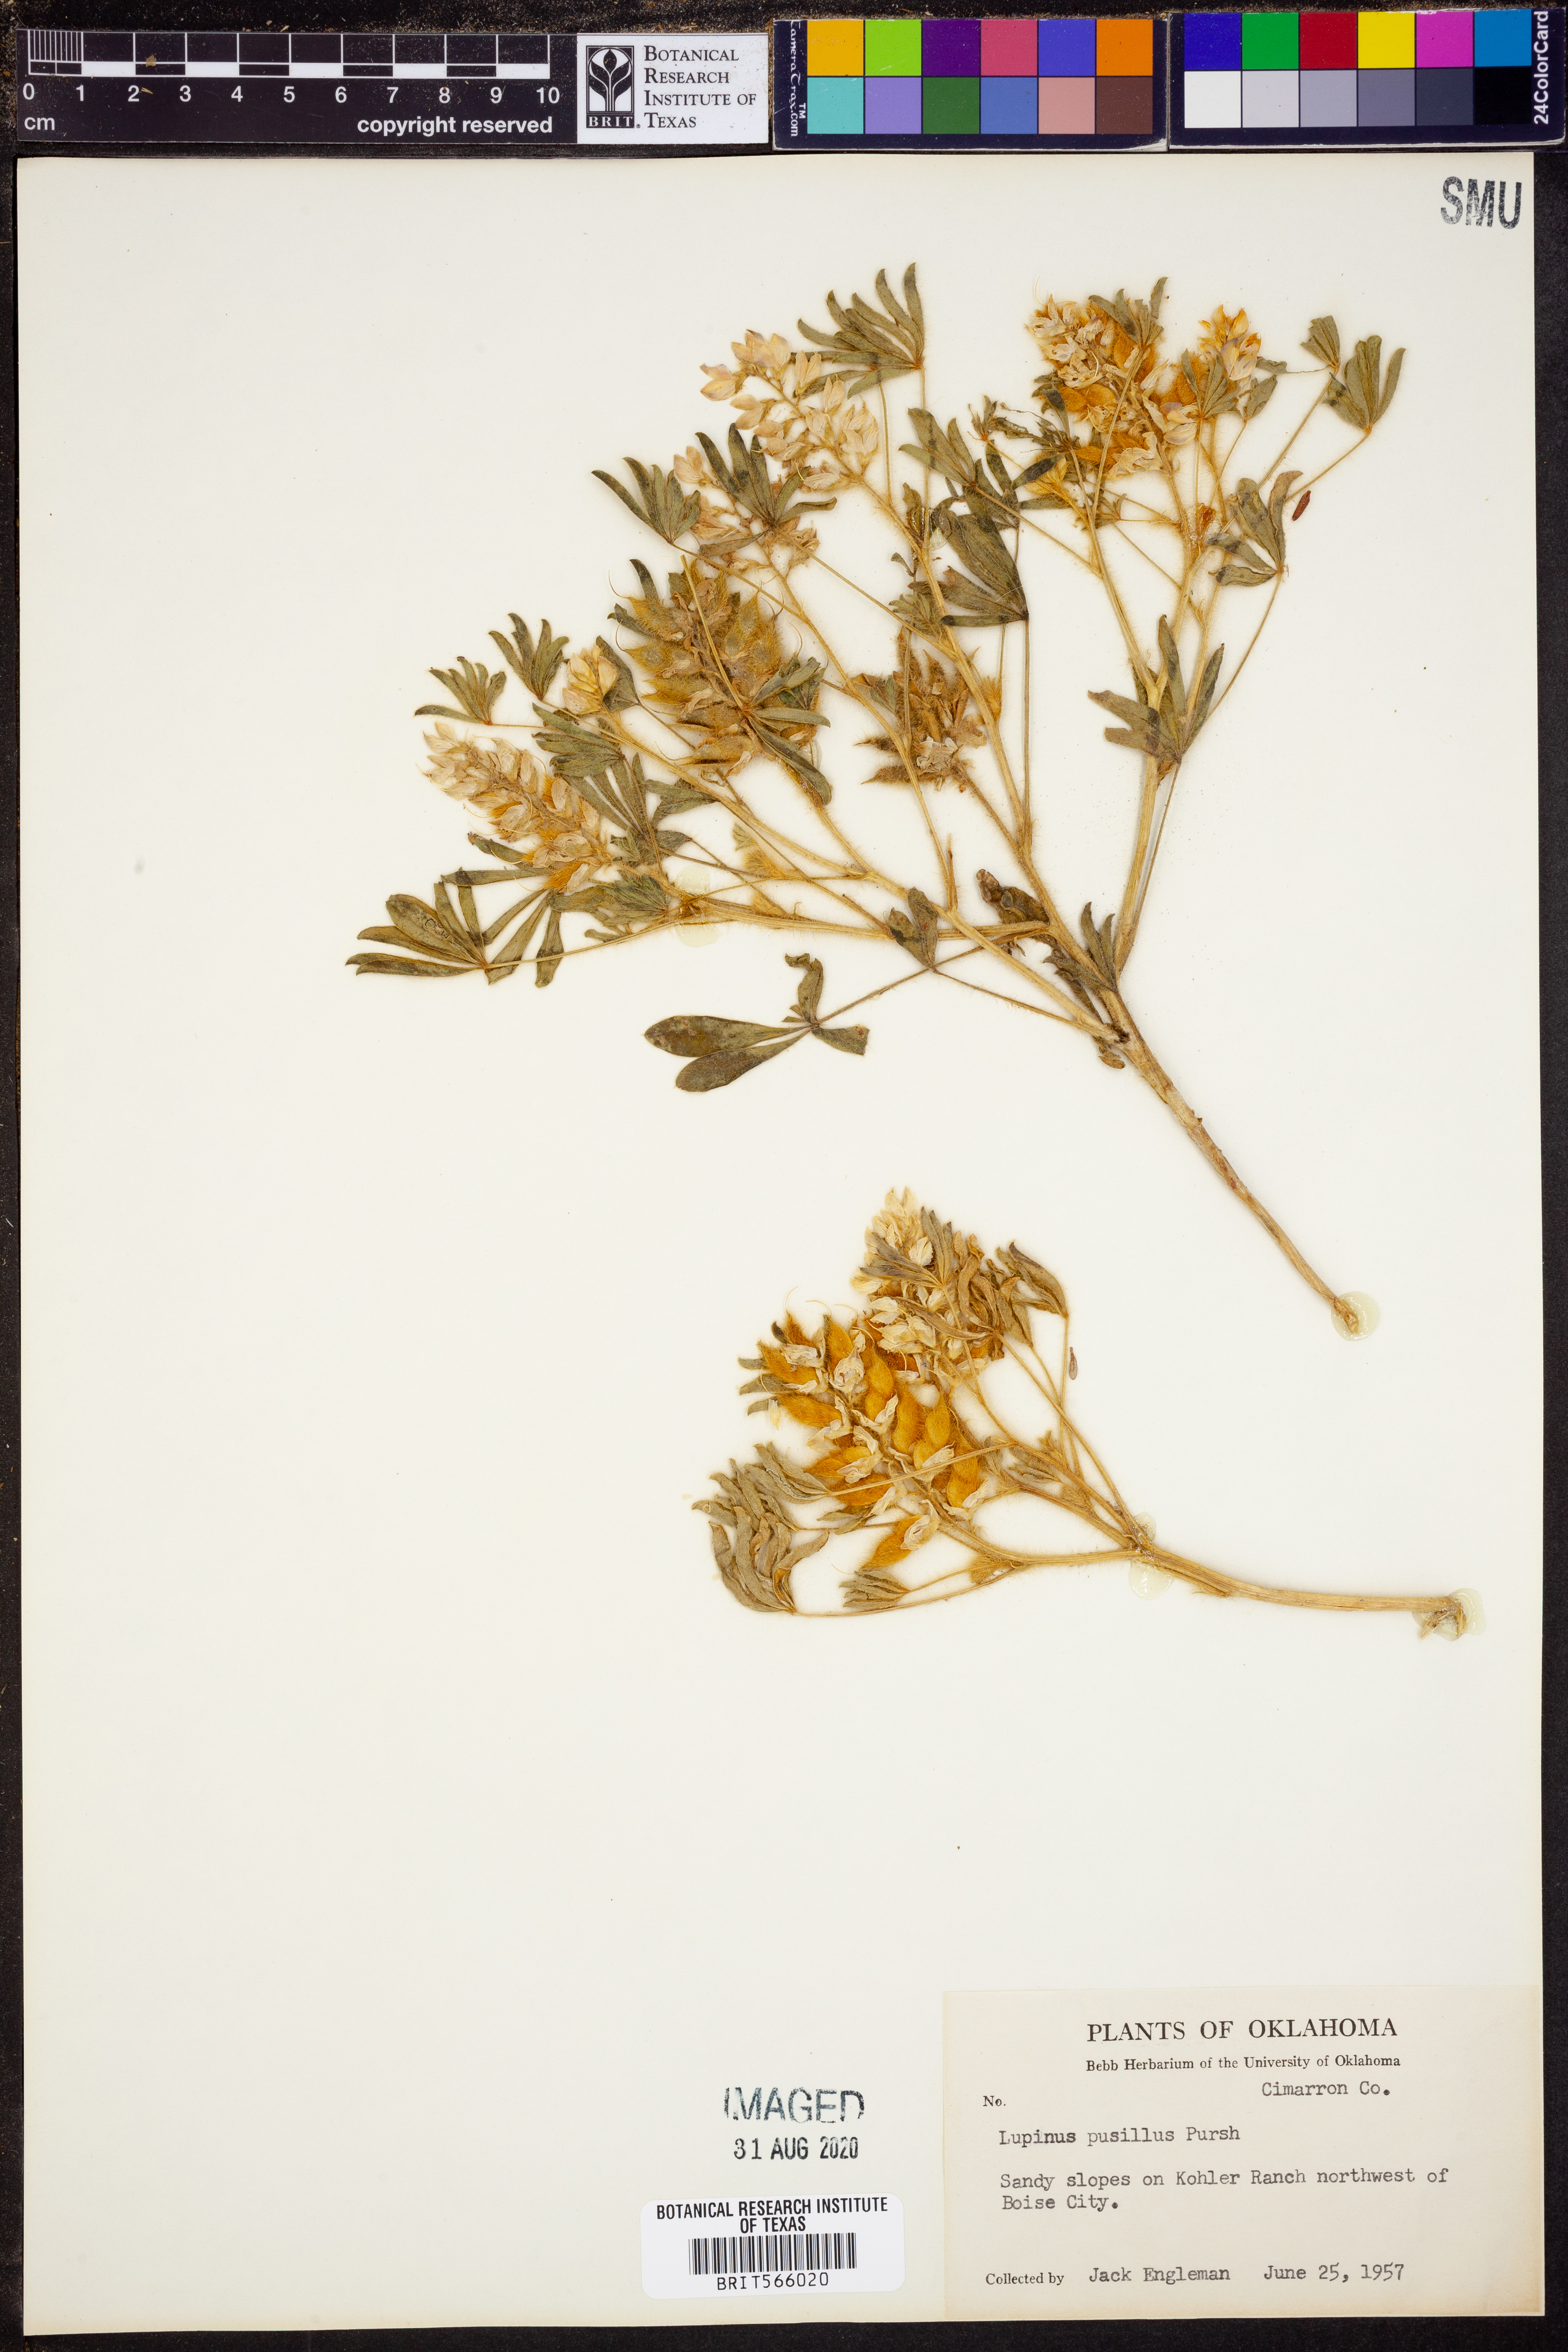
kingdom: Plantae
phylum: Tracheophyta
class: Magnoliopsida
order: Fabales
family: Fabaceae
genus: Lupinus
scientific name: Lupinus pusillus
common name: Low lupine
